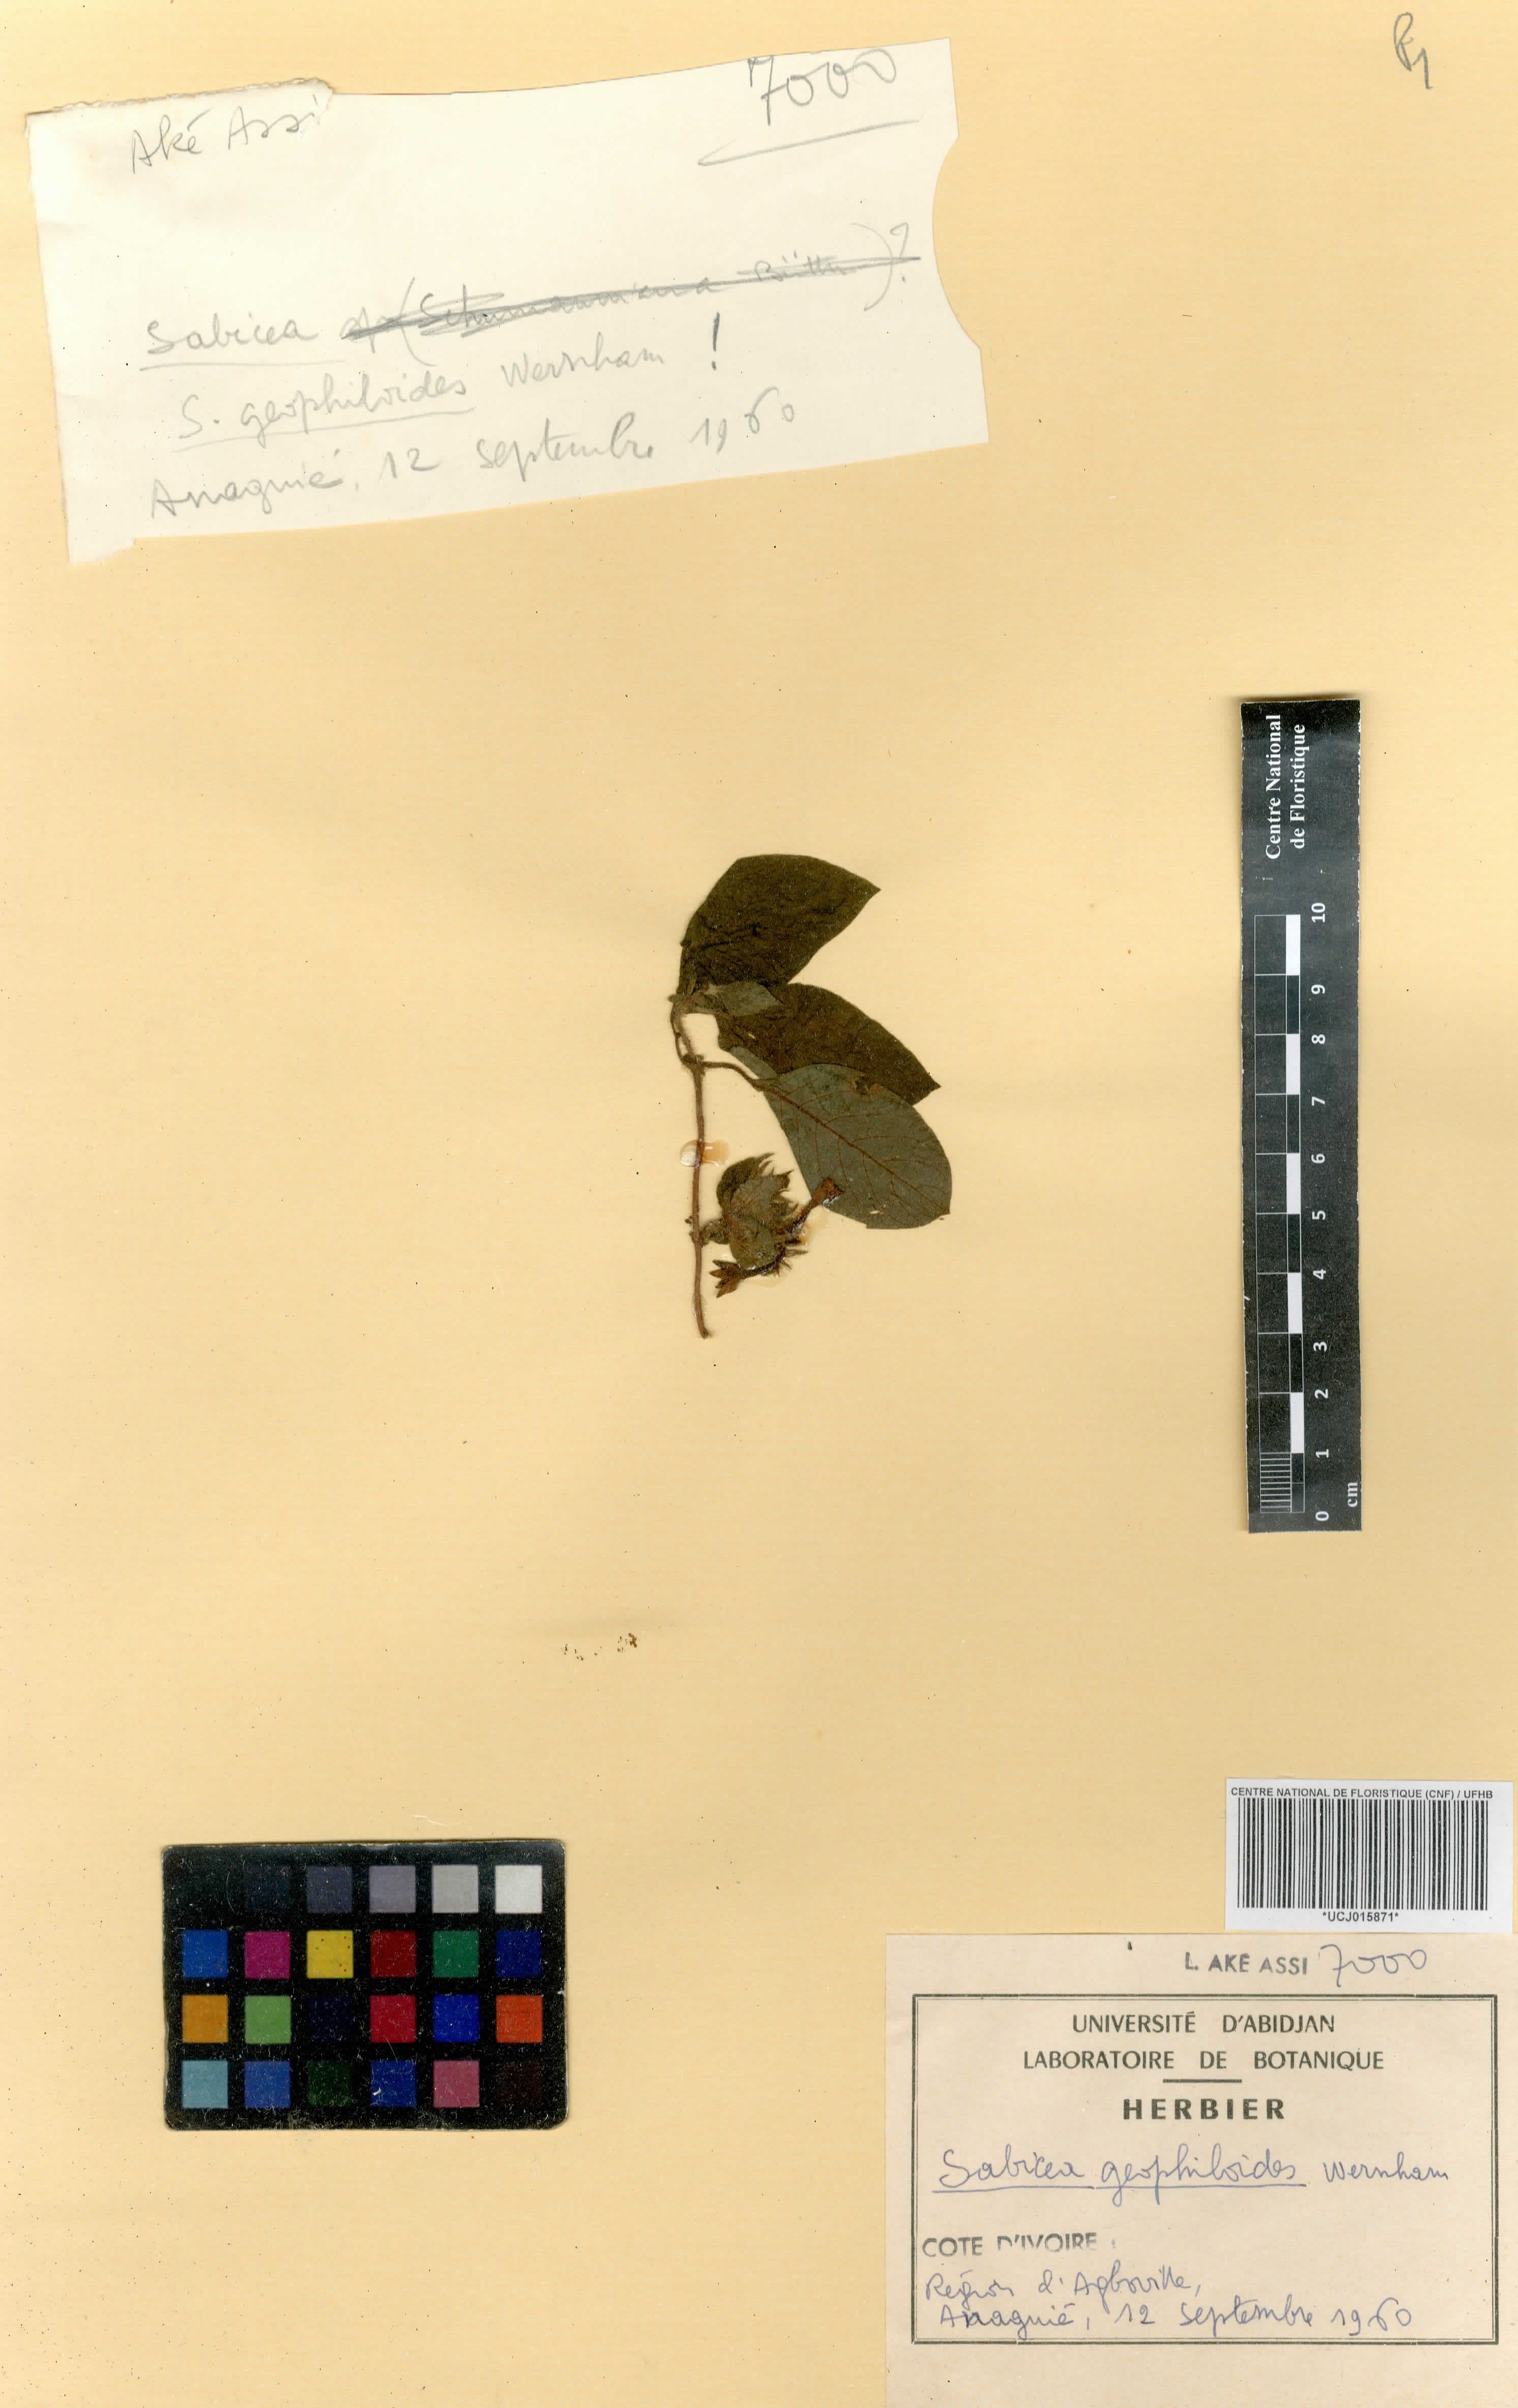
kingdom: Plantae
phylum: Tracheophyta
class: Magnoliopsida
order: Gentianales
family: Rubiaceae
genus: Sabicea
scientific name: Sabicea geophiloides
